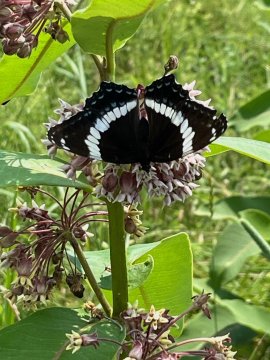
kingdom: Animalia
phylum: Arthropoda
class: Insecta
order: Lepidoptera
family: Nymphalidae
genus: Limenitis
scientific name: Limenitis arthemis
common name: Red-spotted Admiral
